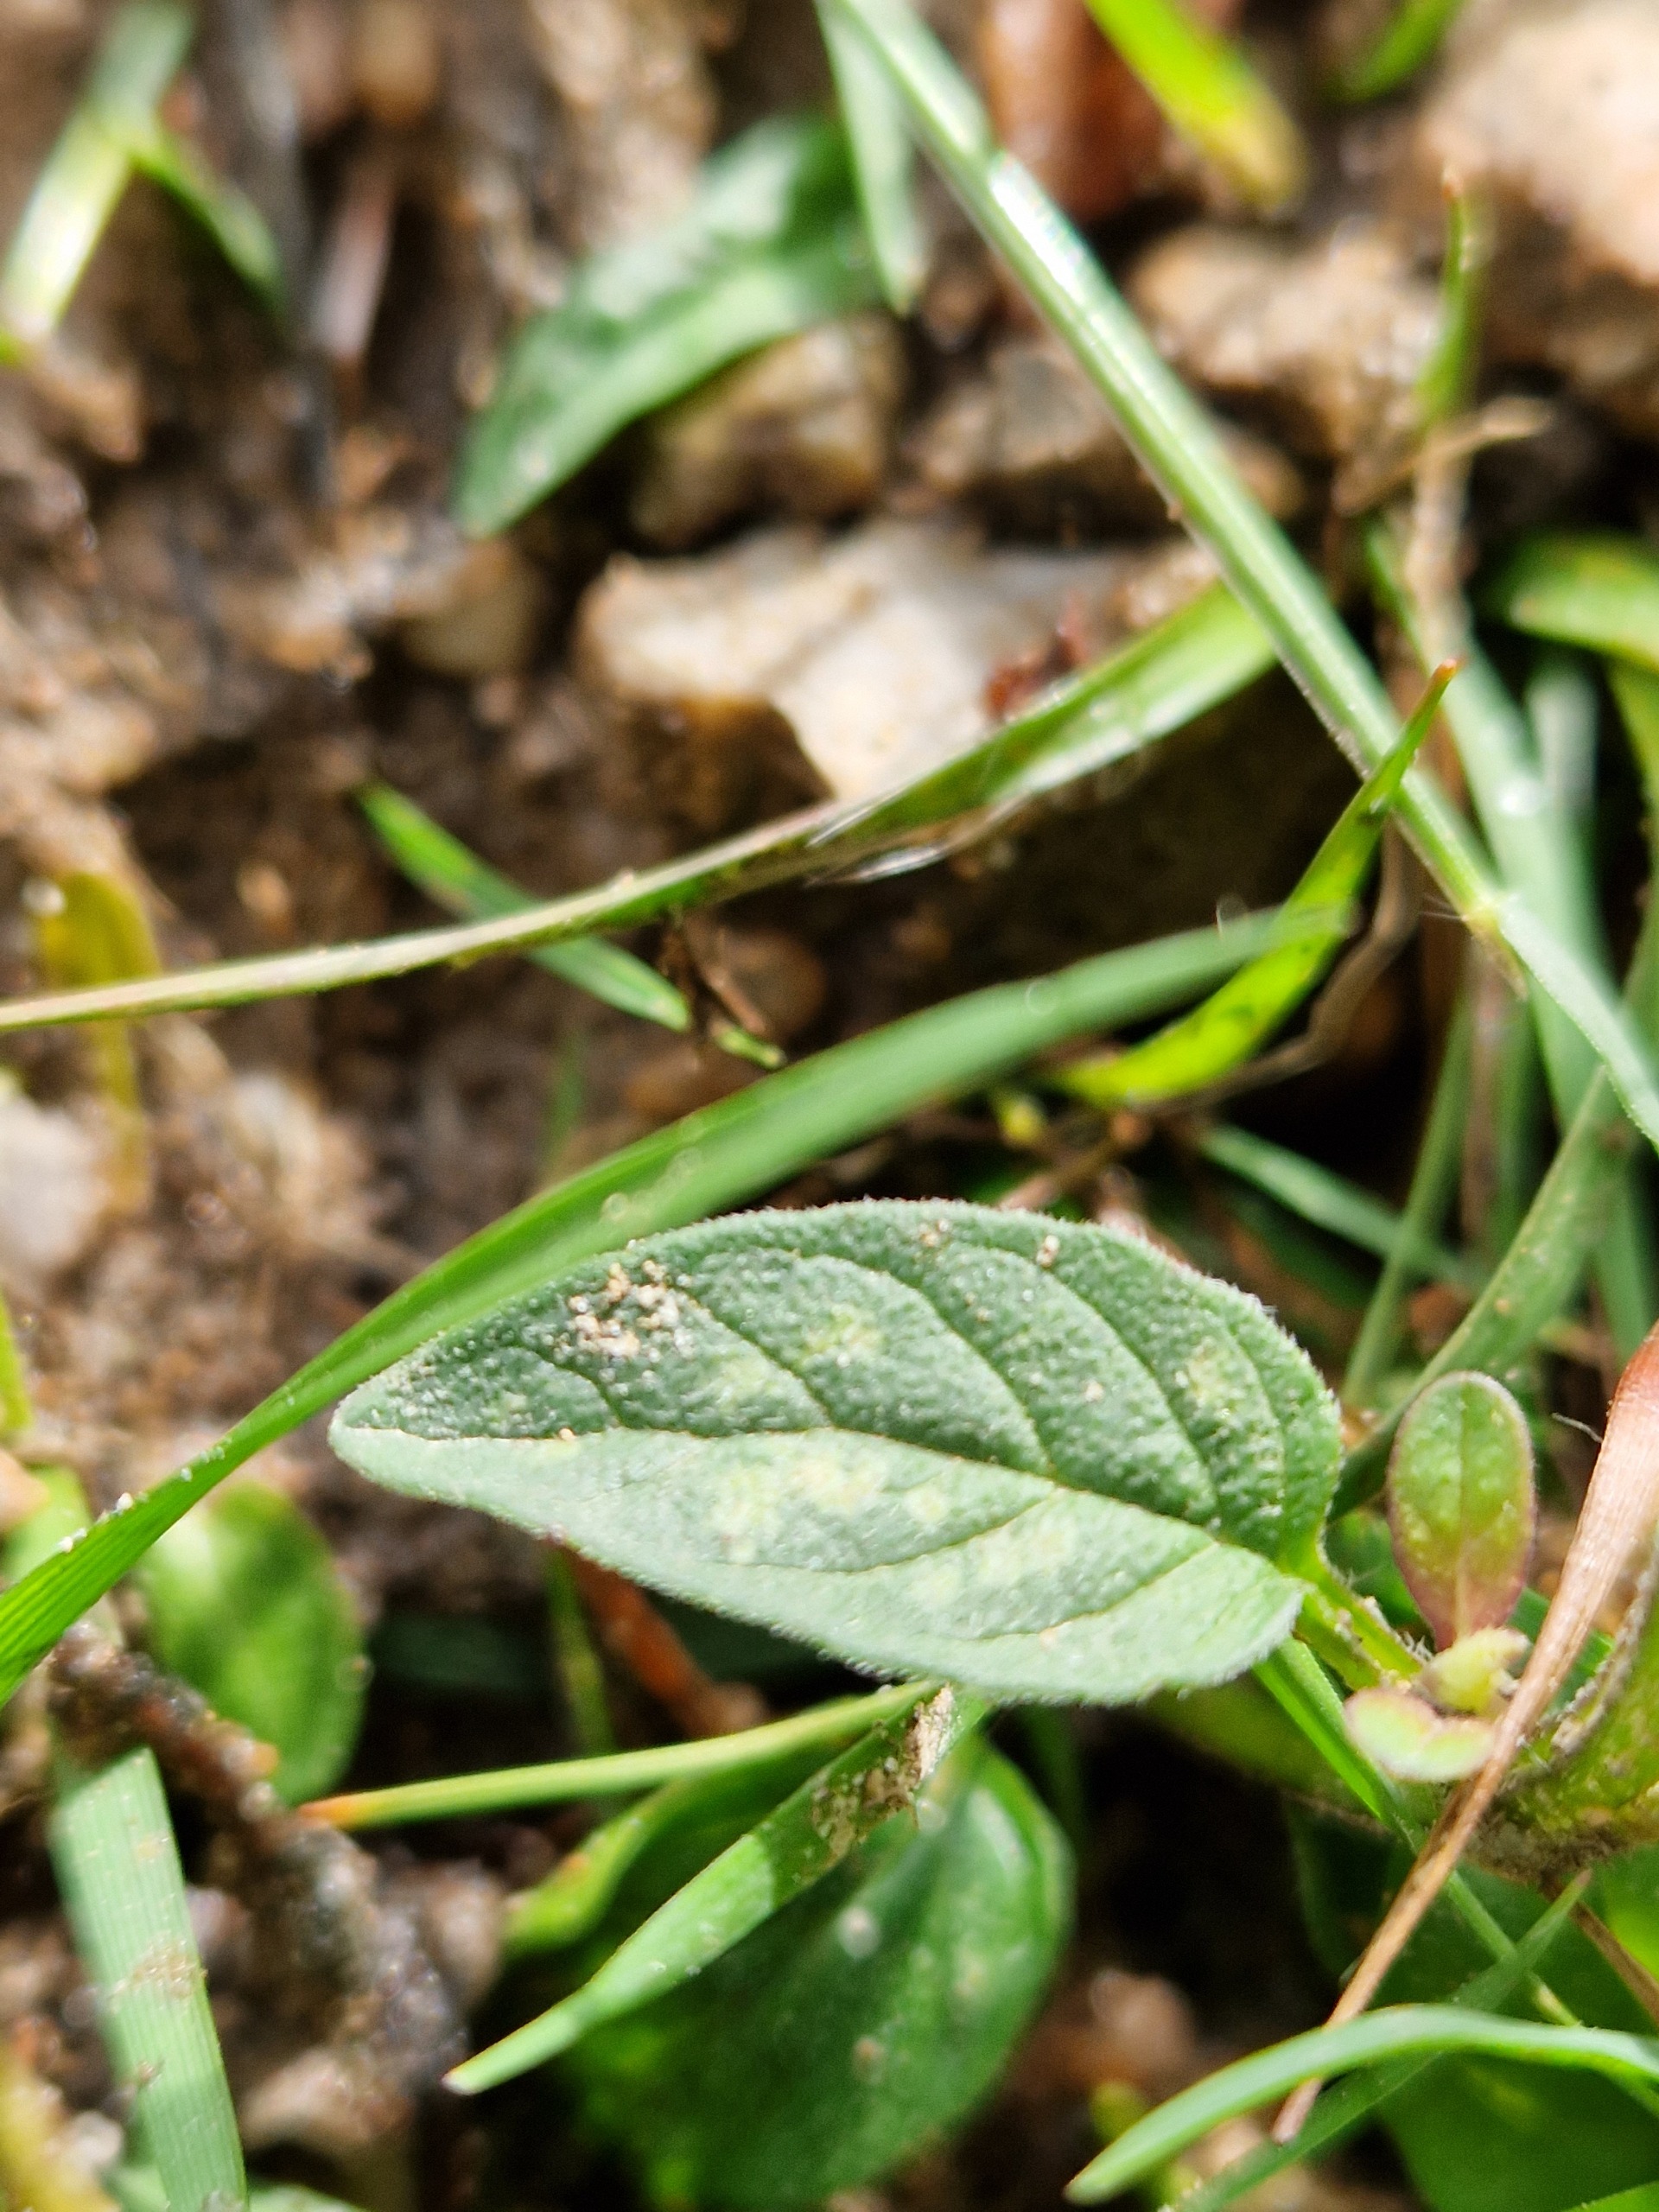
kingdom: Plantae
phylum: Tracheophyta
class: Magnoliopsida
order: Lamiales
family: Lamiaceae
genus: Prunella
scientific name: Prunella vulgaris
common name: Almindelig brunelle
